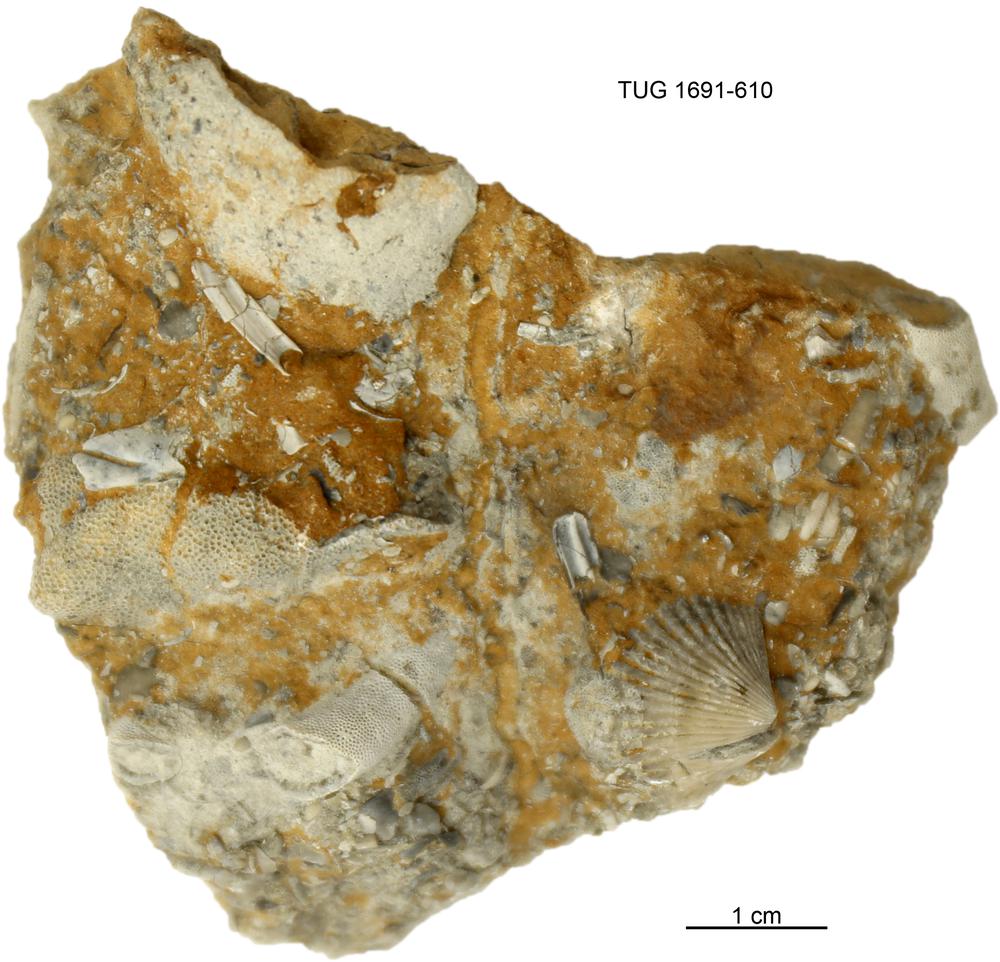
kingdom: Animalia
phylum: Bryozoa
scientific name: Bryozoa
